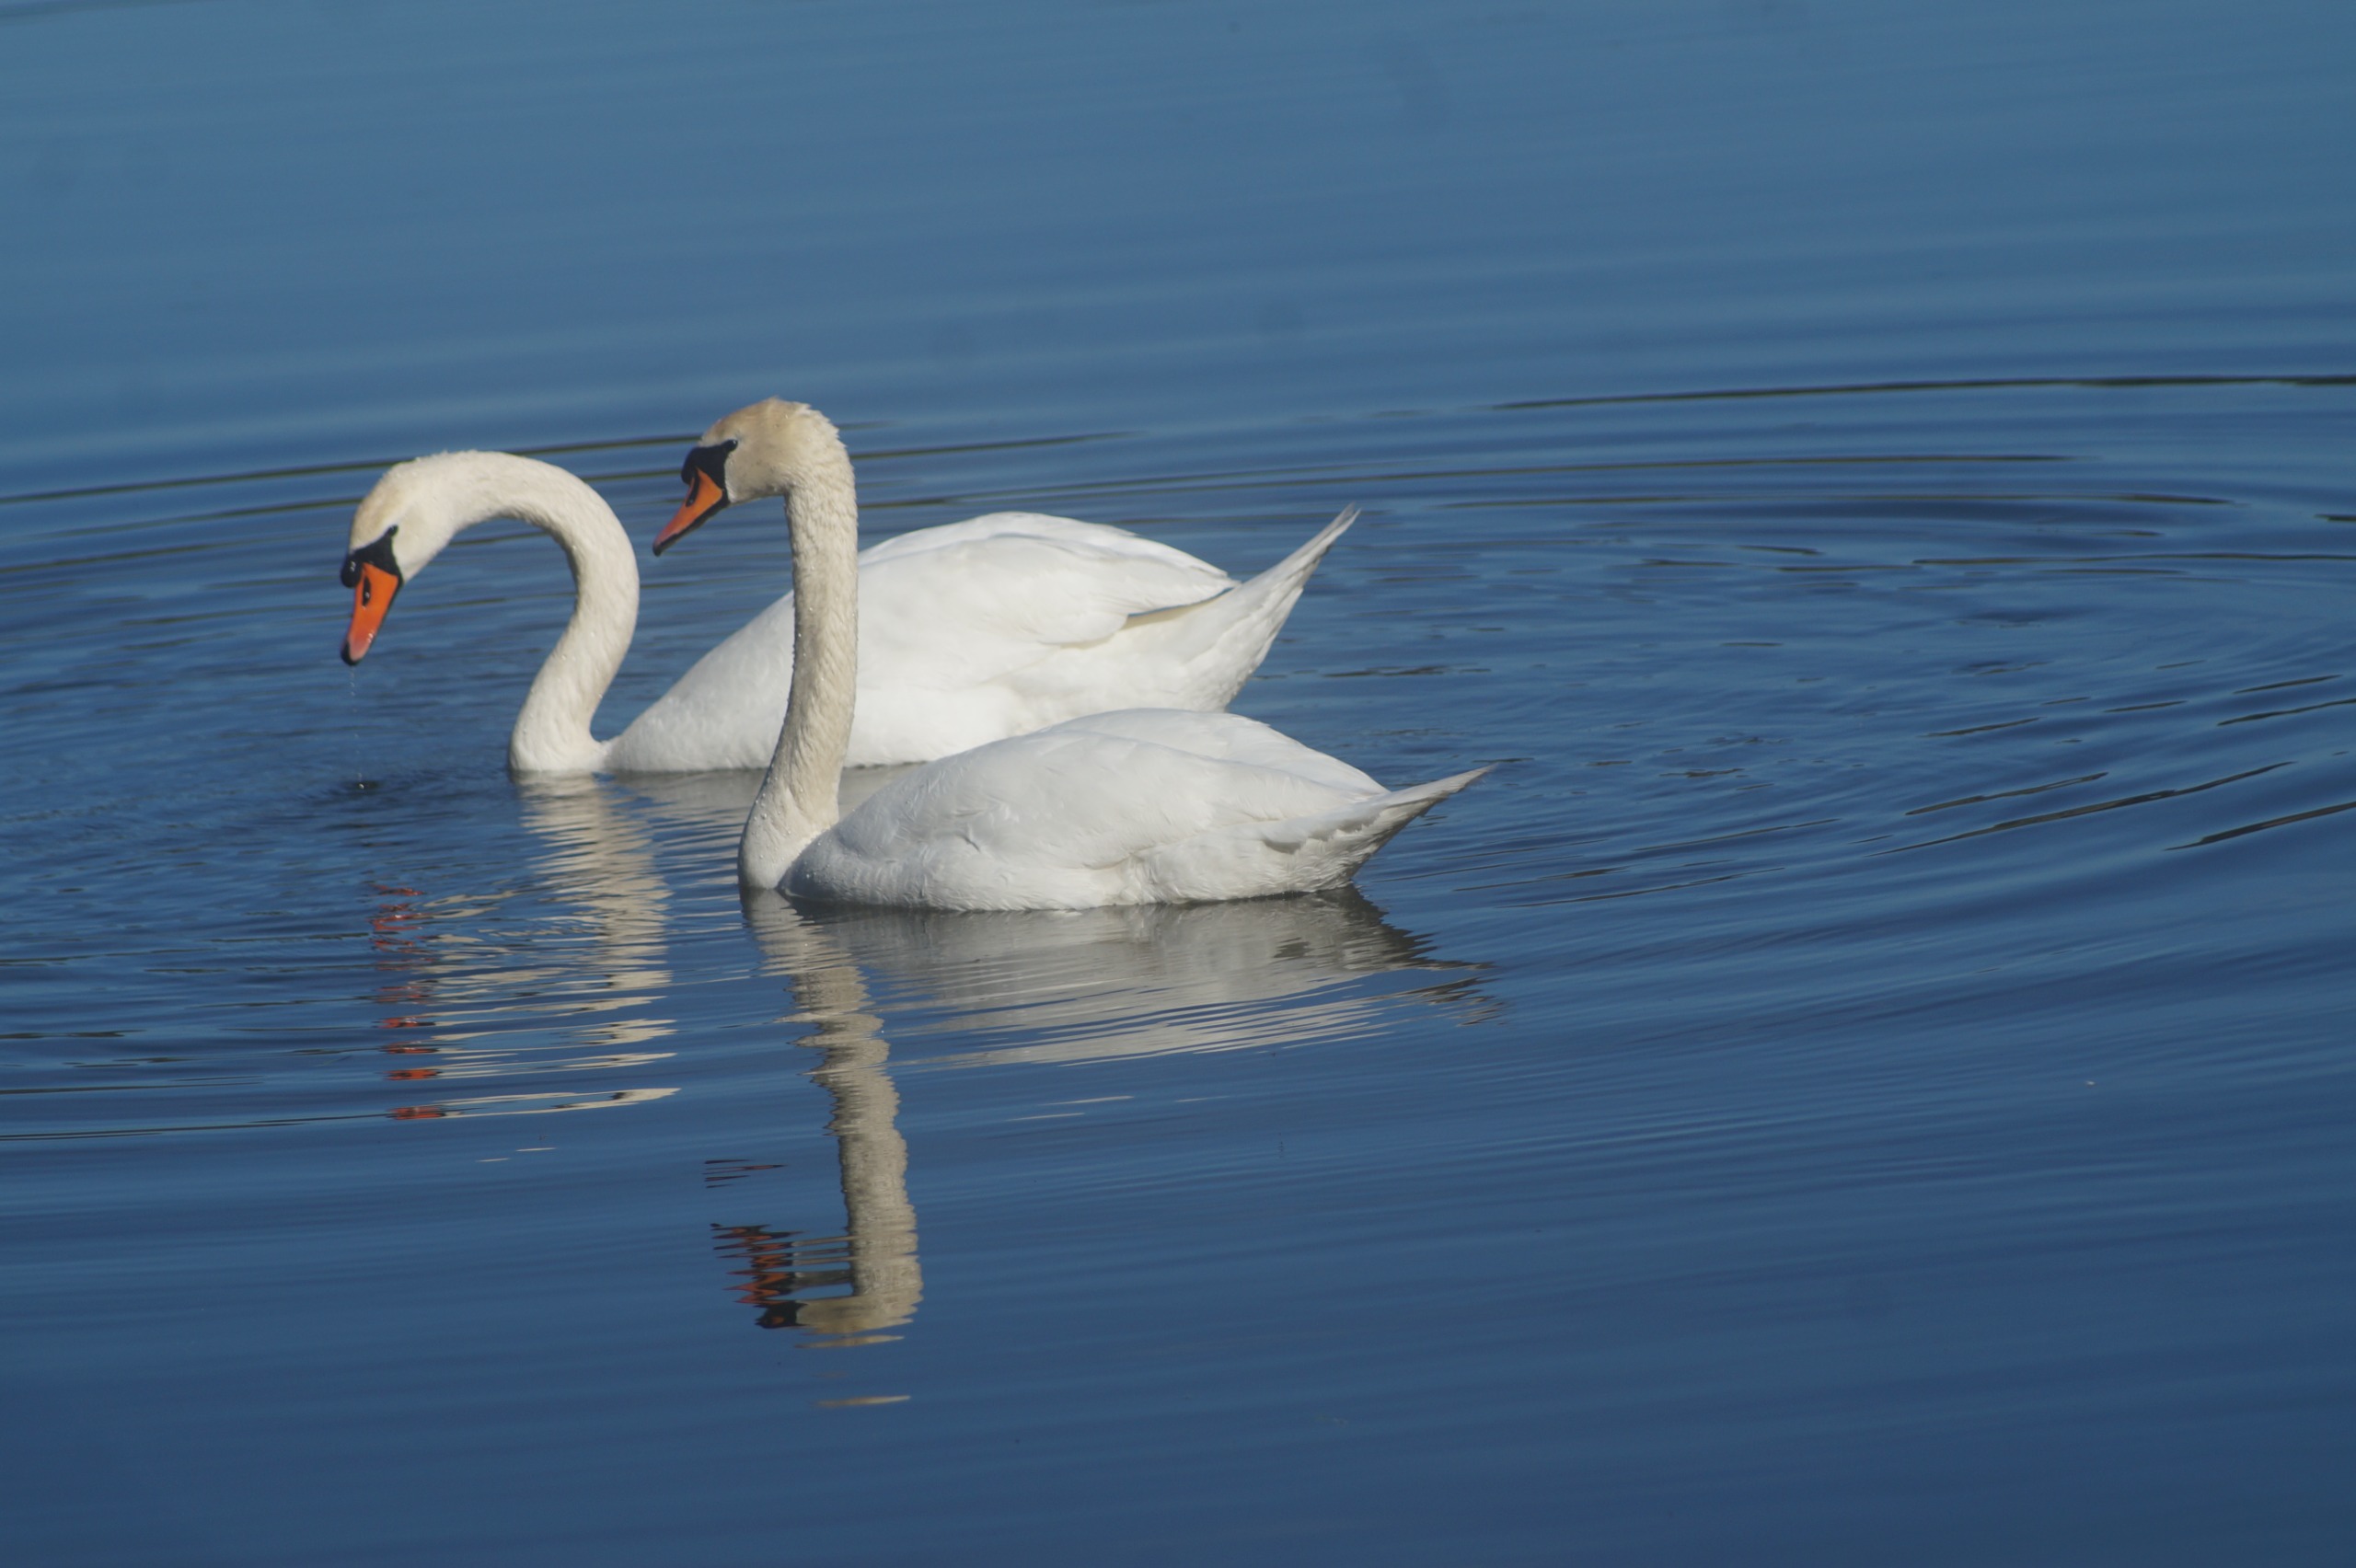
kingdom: Animalia
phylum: Chordata
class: Aves
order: Anseriformes
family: Anatidae
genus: Cygnus
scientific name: Cygnus olor
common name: Knopsvane
